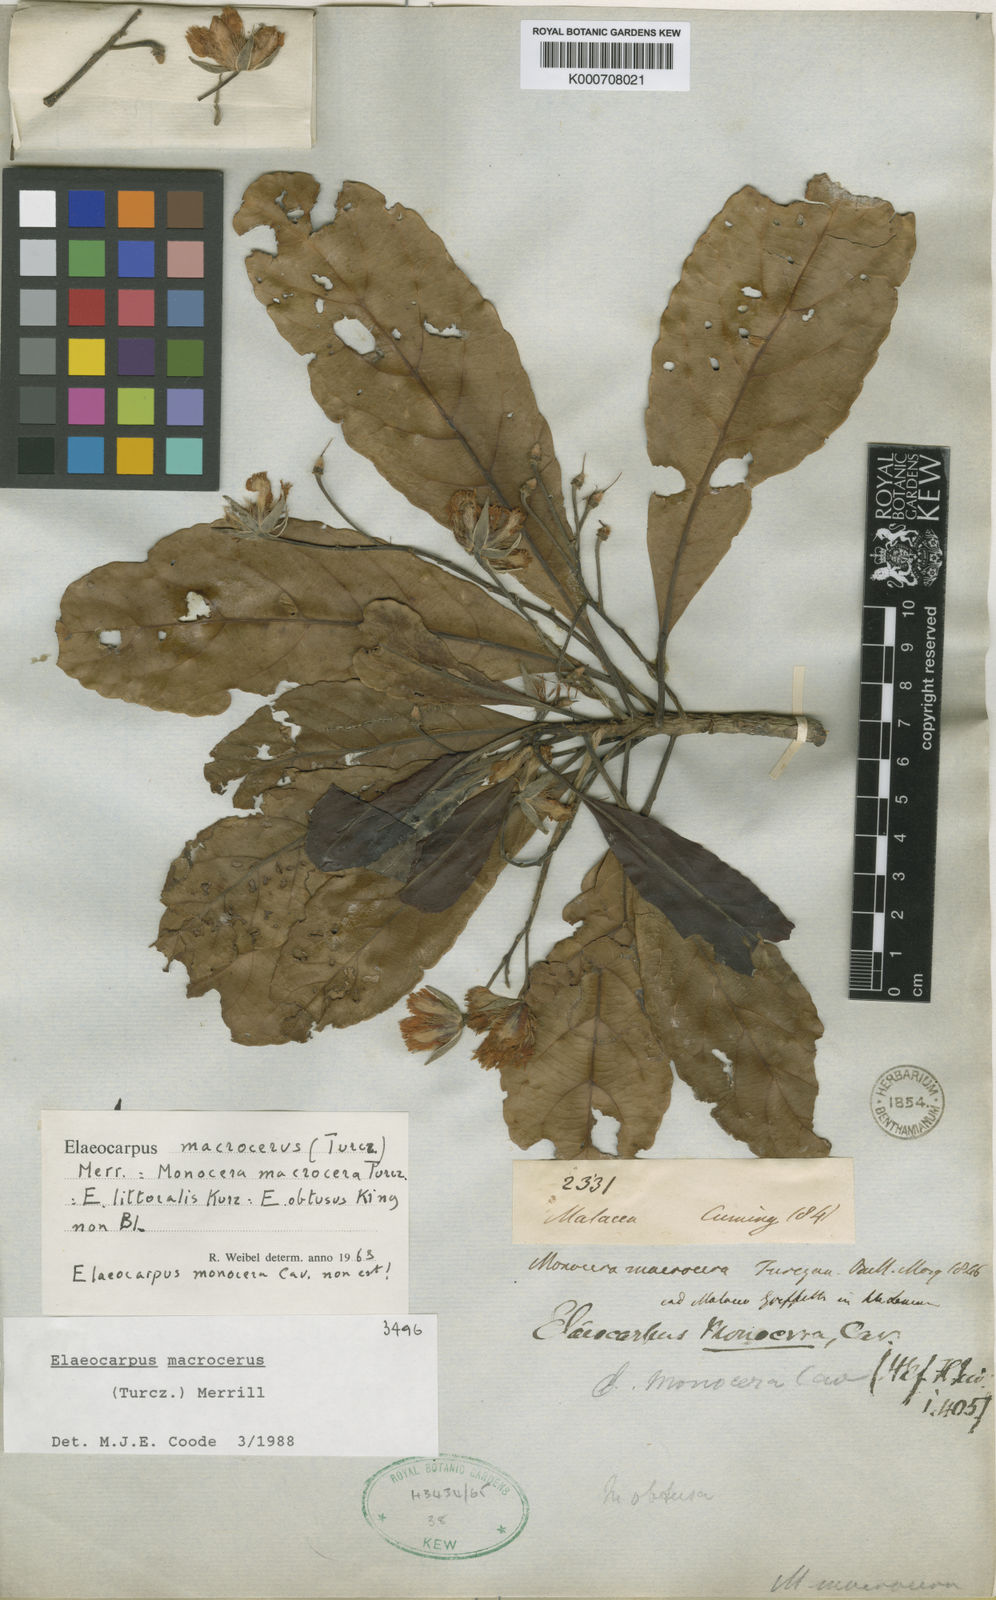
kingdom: Plantae
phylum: Tracheophyta
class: Magnoliopsida
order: Oxalidales
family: Elaeocarpaceae
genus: Elaeocarpus
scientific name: Elaeocarpus macrocerus
